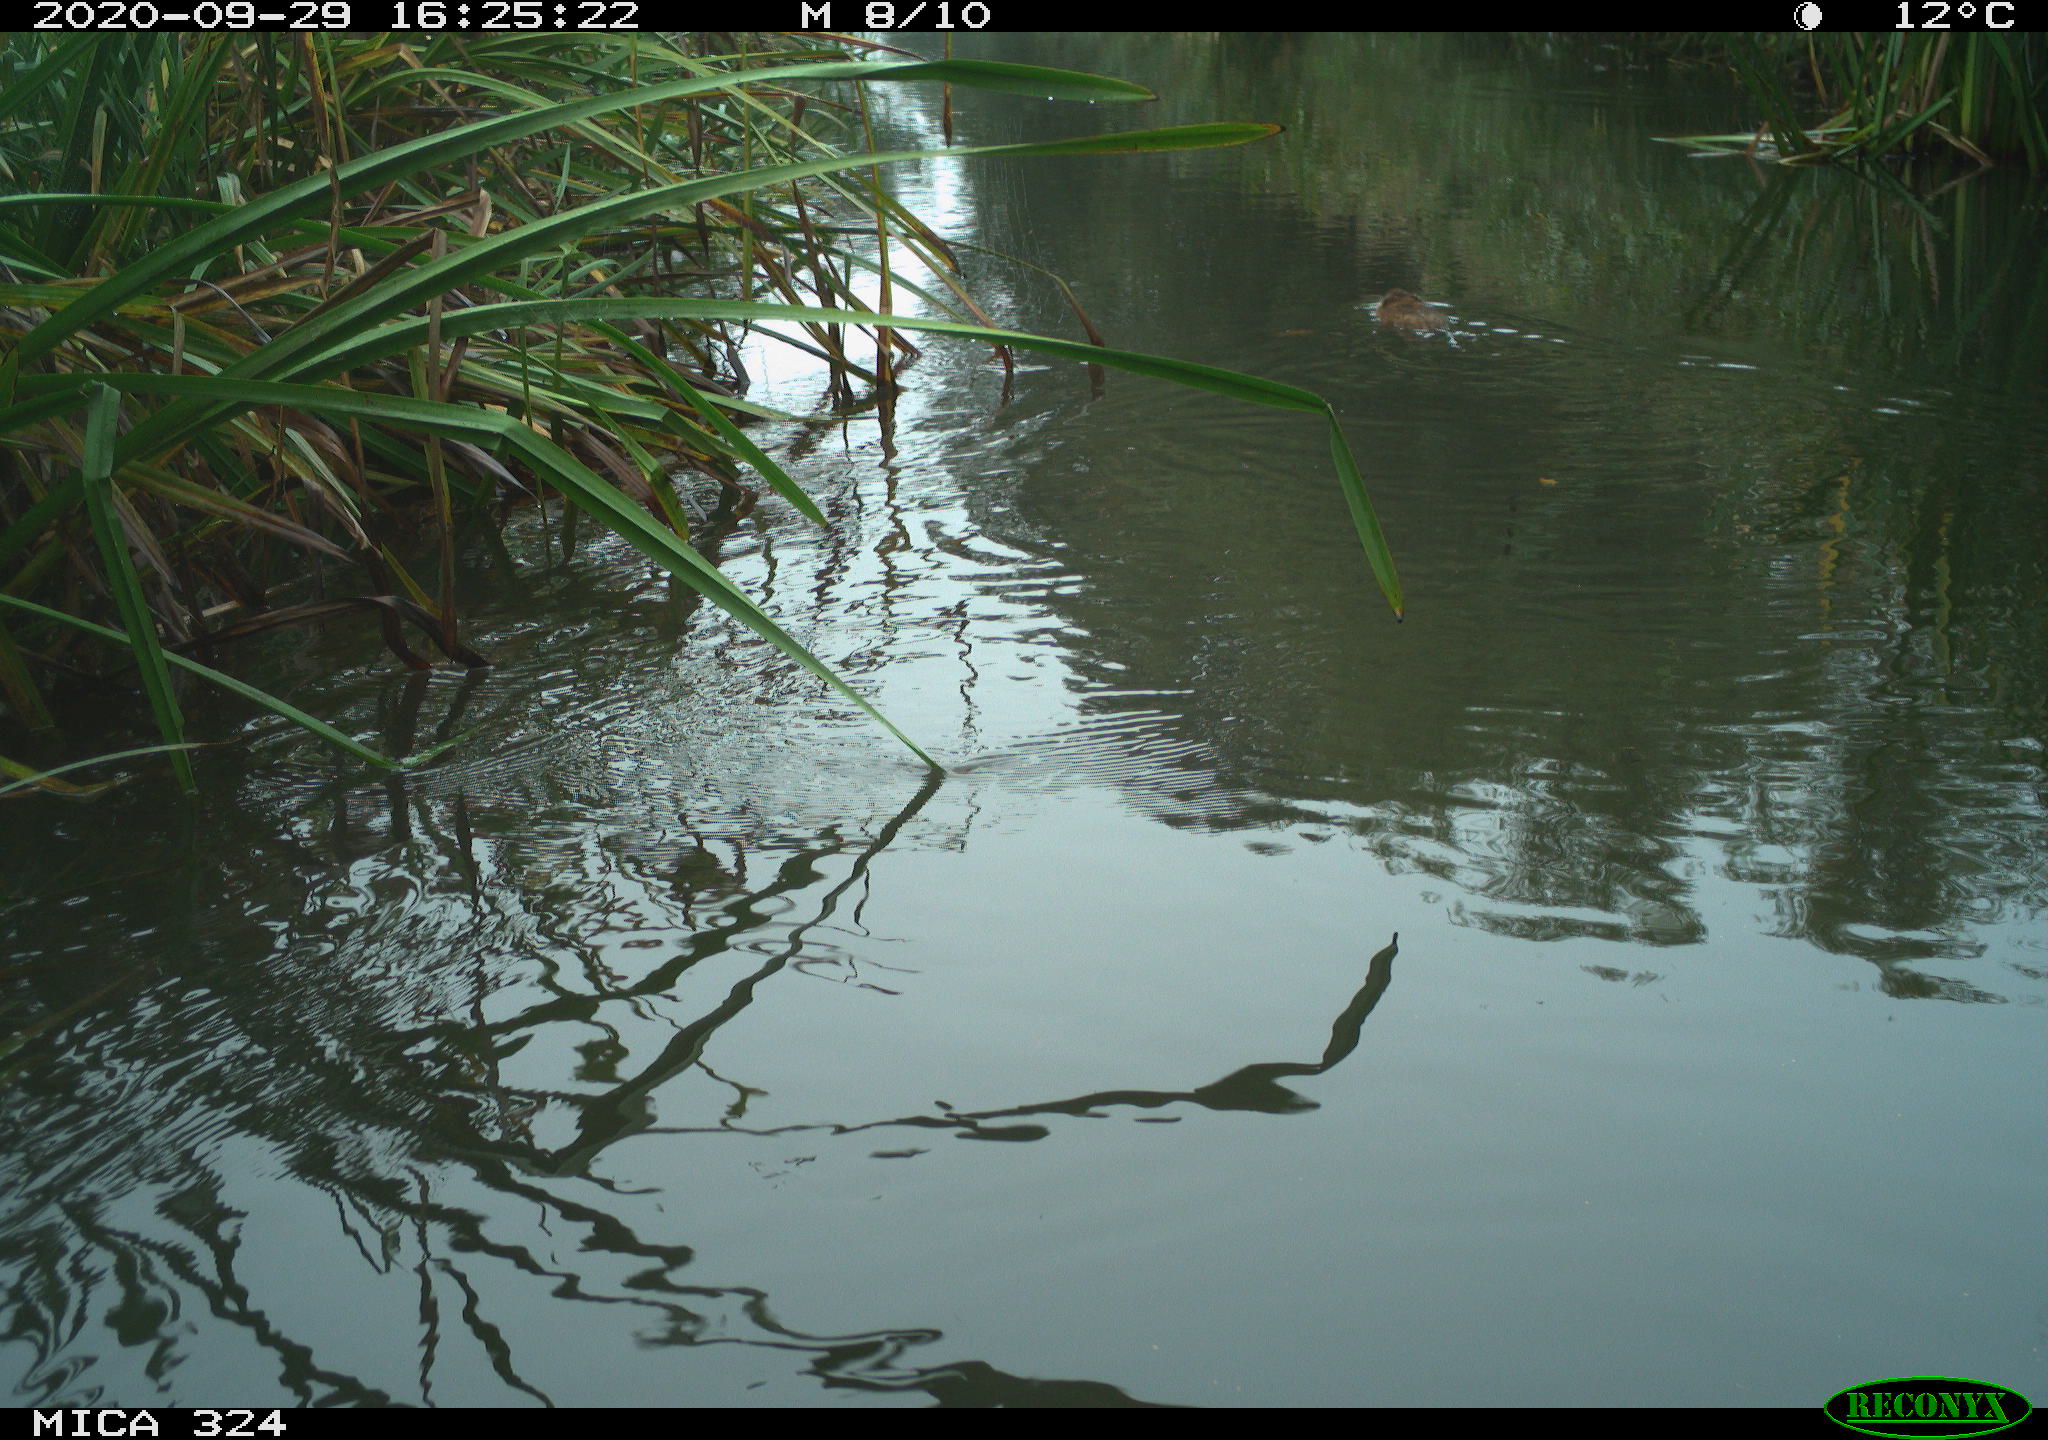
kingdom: Animalia
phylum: Chordata
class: Mammalia
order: Rodentia
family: Cricetidae
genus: Ondatra
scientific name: Ondatra zibethicus
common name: Muskrat
